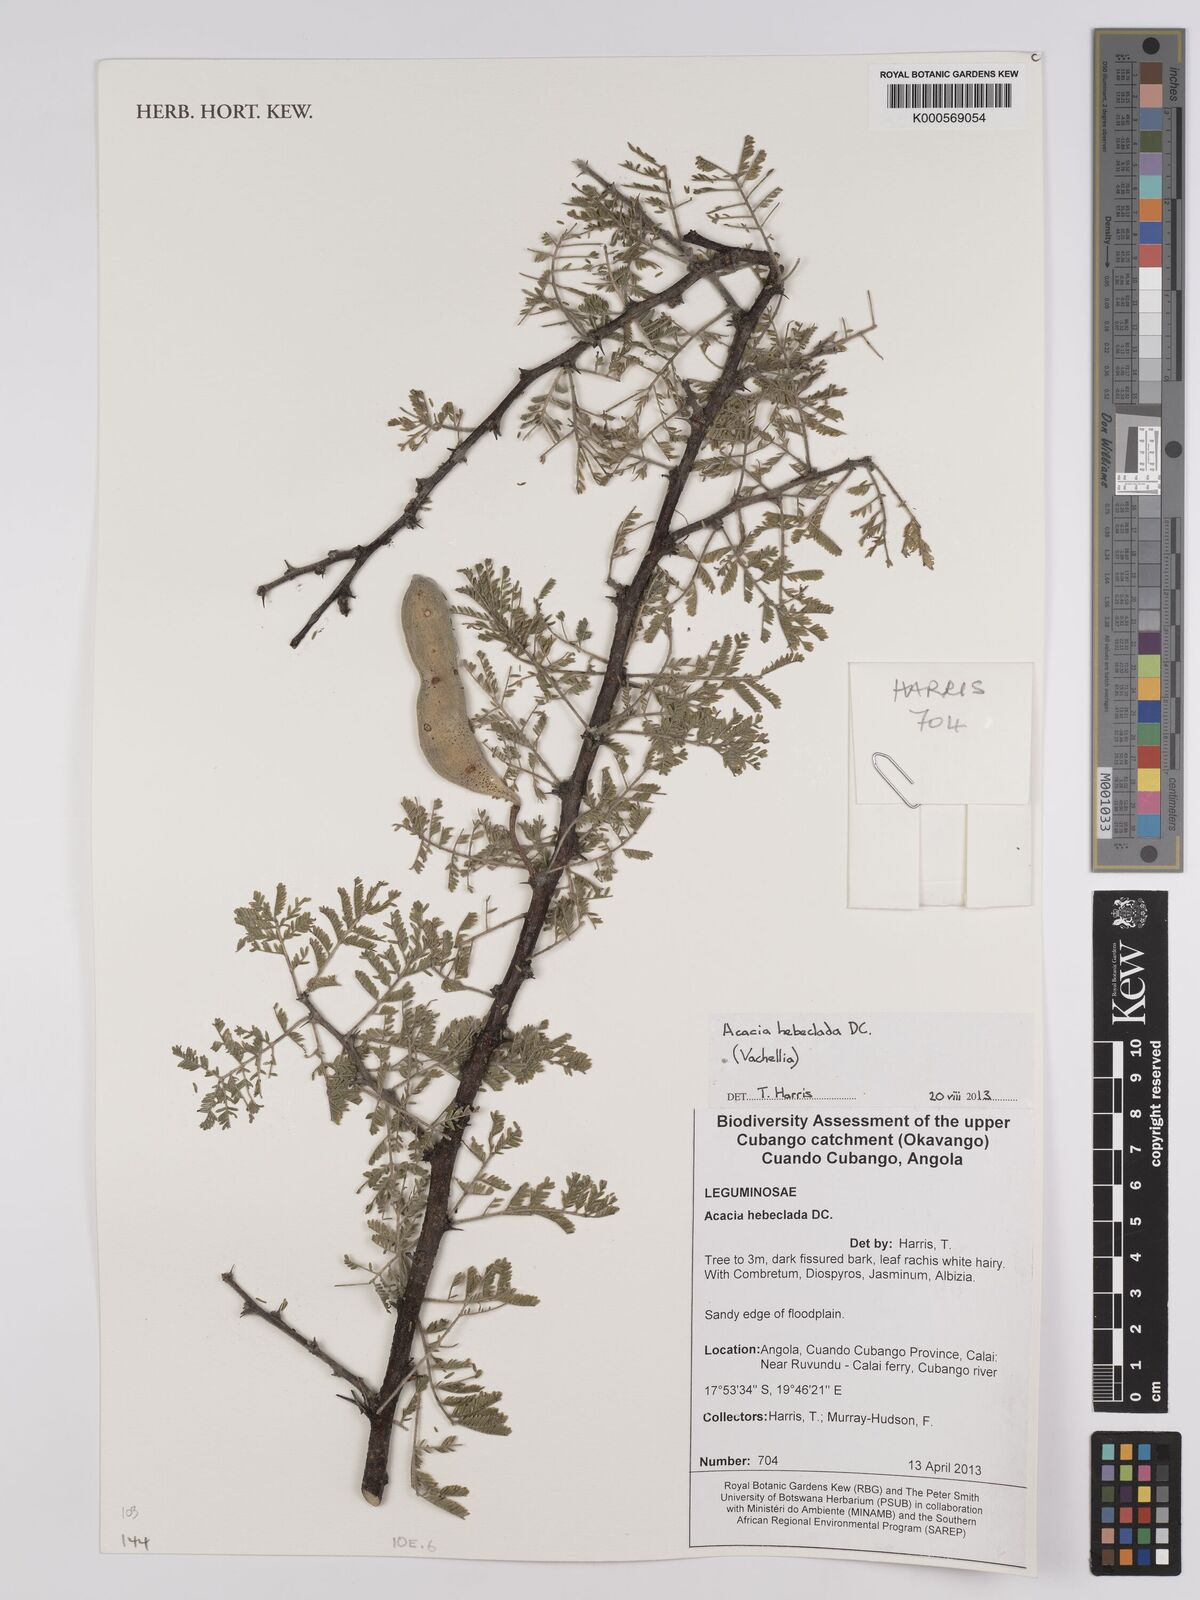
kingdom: Plantae
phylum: Tracheophyta
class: Magnoliopsida
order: Fabales
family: Fabaceae
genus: Vachellia
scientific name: Vachellia hebeclada
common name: Candle thorn
